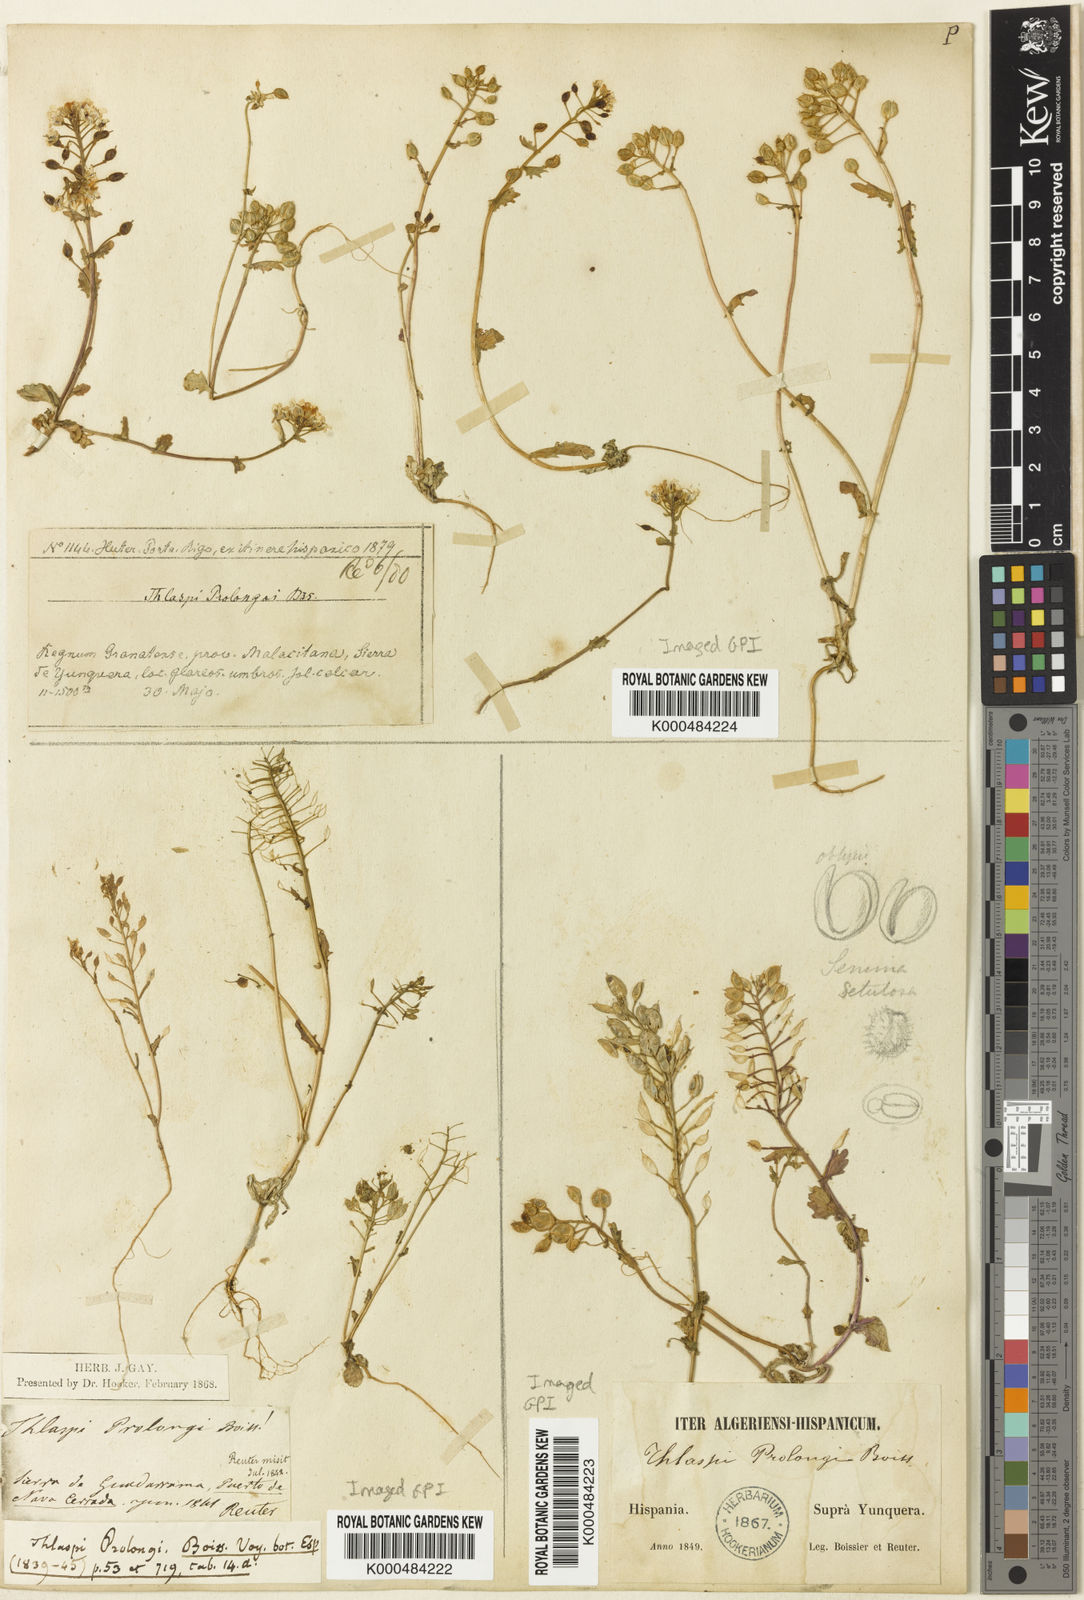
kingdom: Plantae
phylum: Tracheophyta
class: Magnoliopsida
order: Brassicales
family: Brassicaceae
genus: Noccaea
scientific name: Noccaea perfoliata
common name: Perfoliate pennycress
